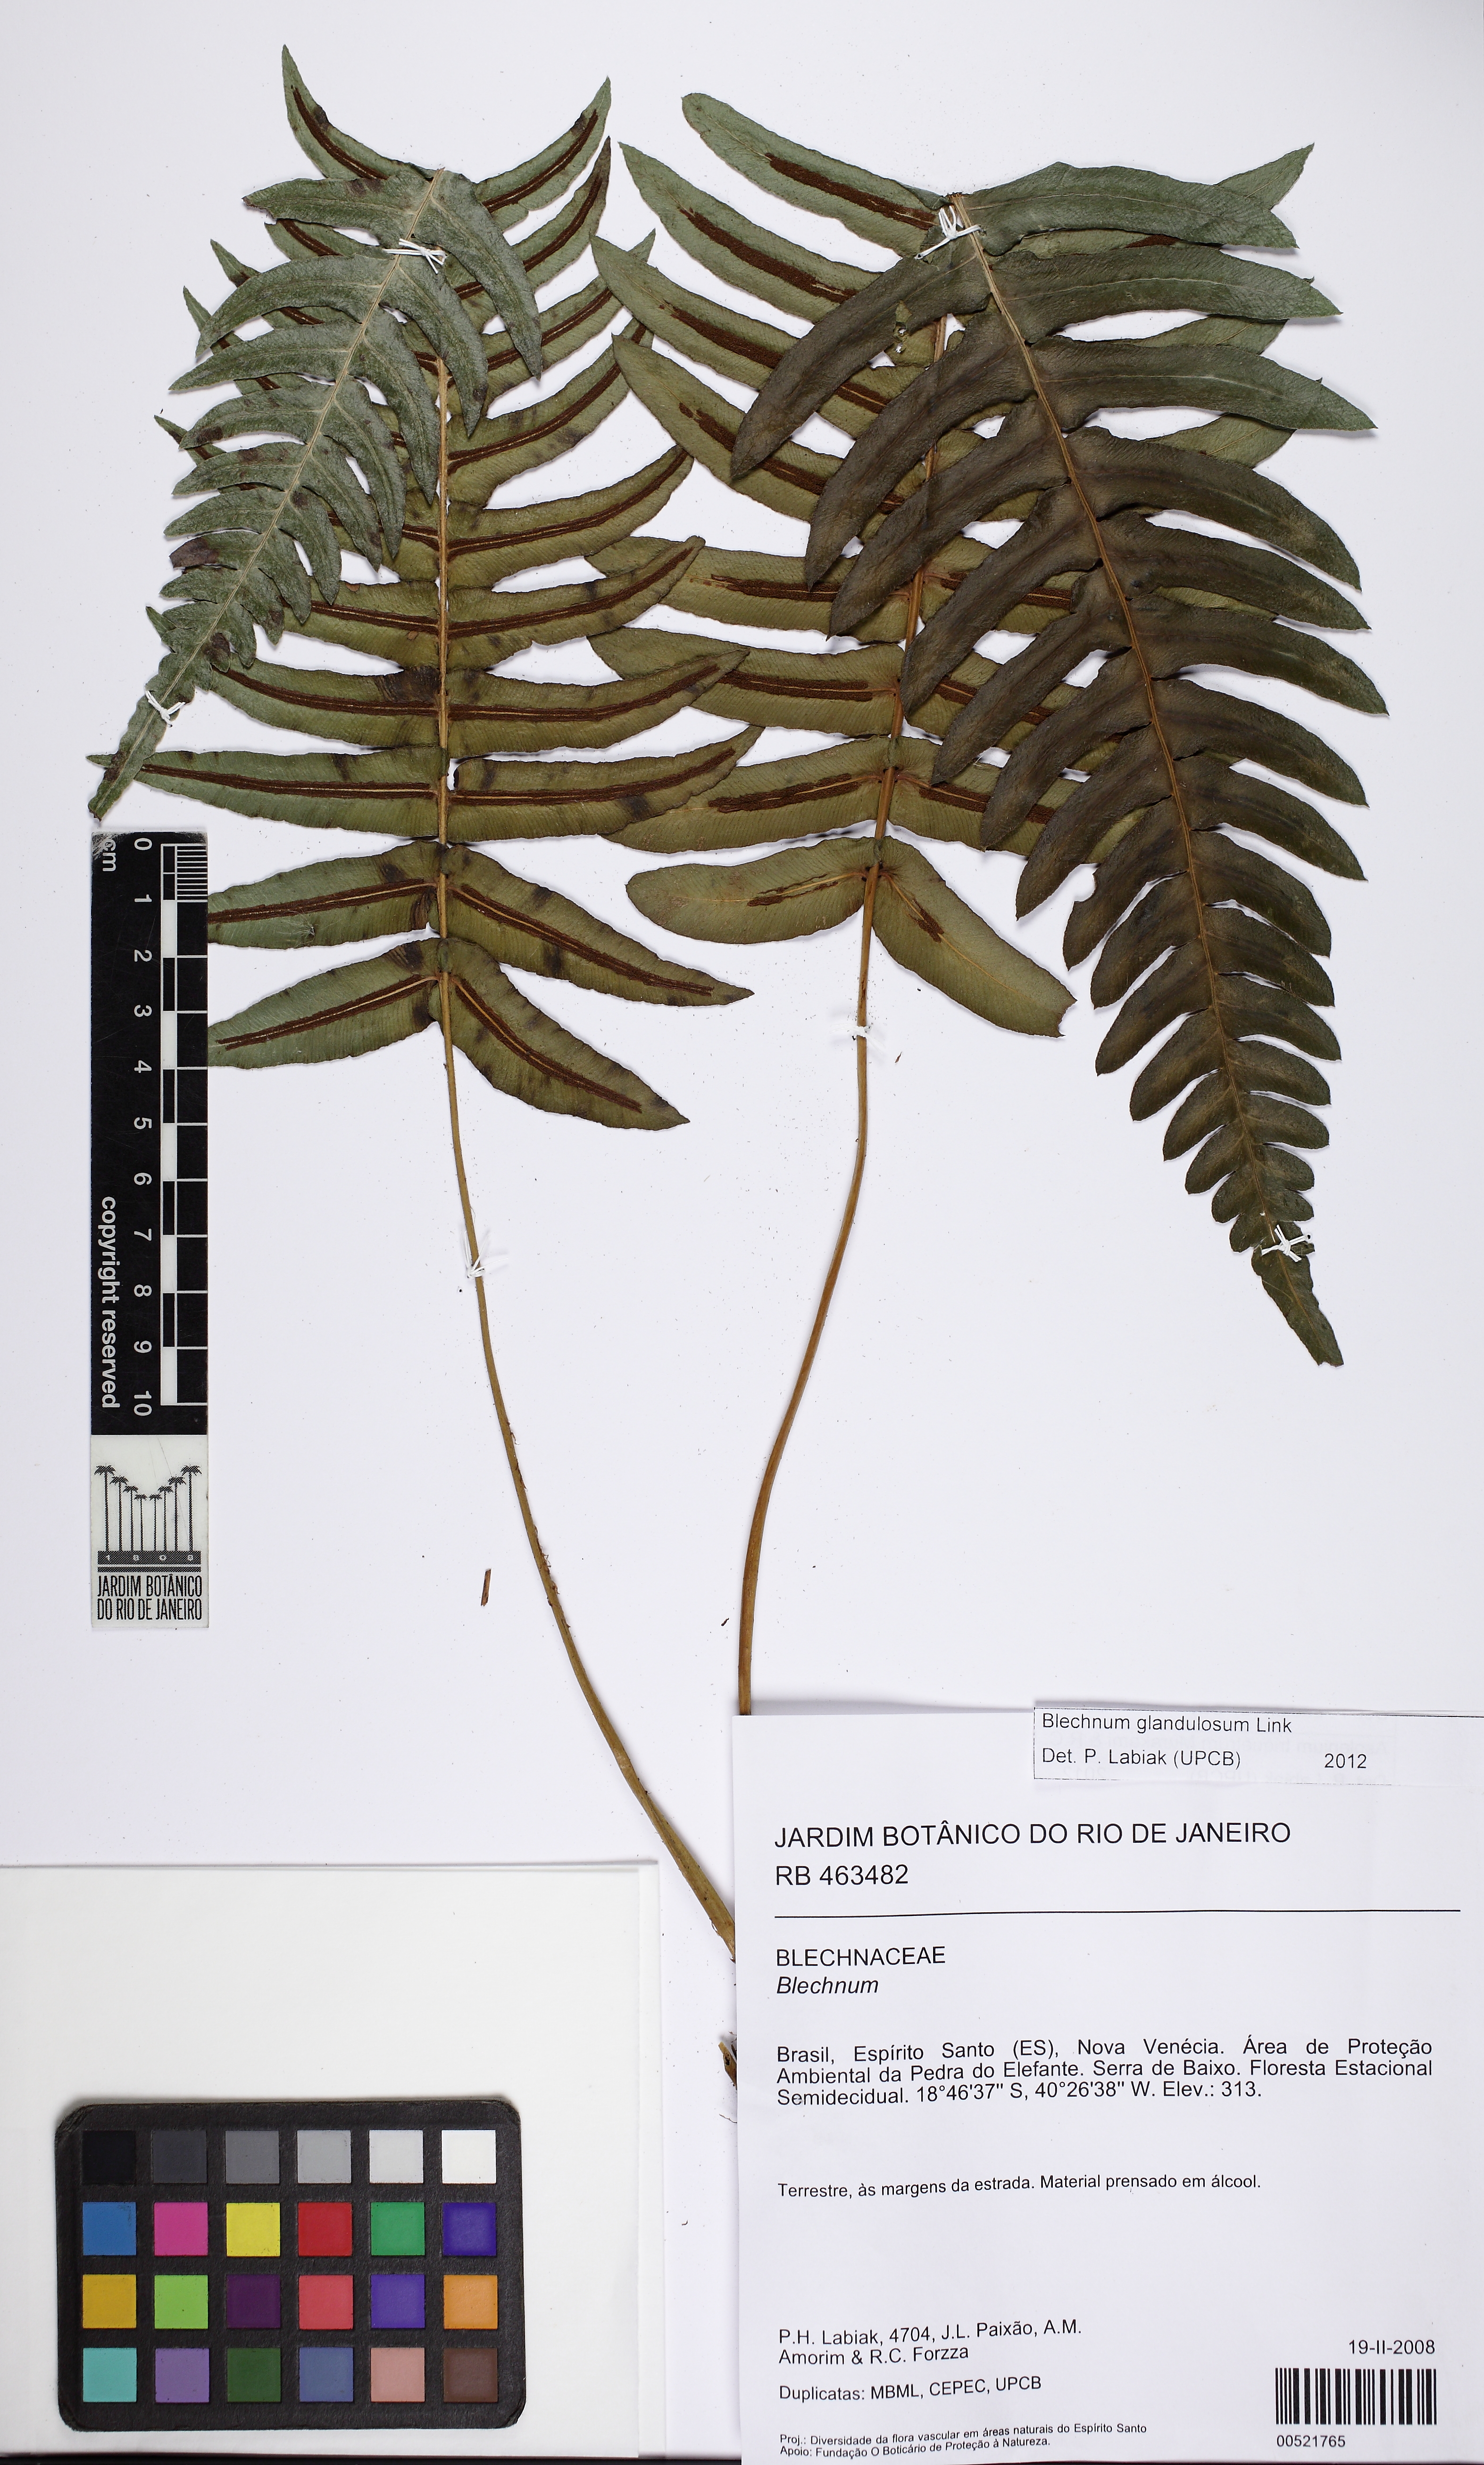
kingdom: Plantae
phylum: Tracheophyta
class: Polypodiopsida
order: Polypodiales
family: Blechnaceae
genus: Blechnum
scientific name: Blechnum occidentale
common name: Hammock fern
